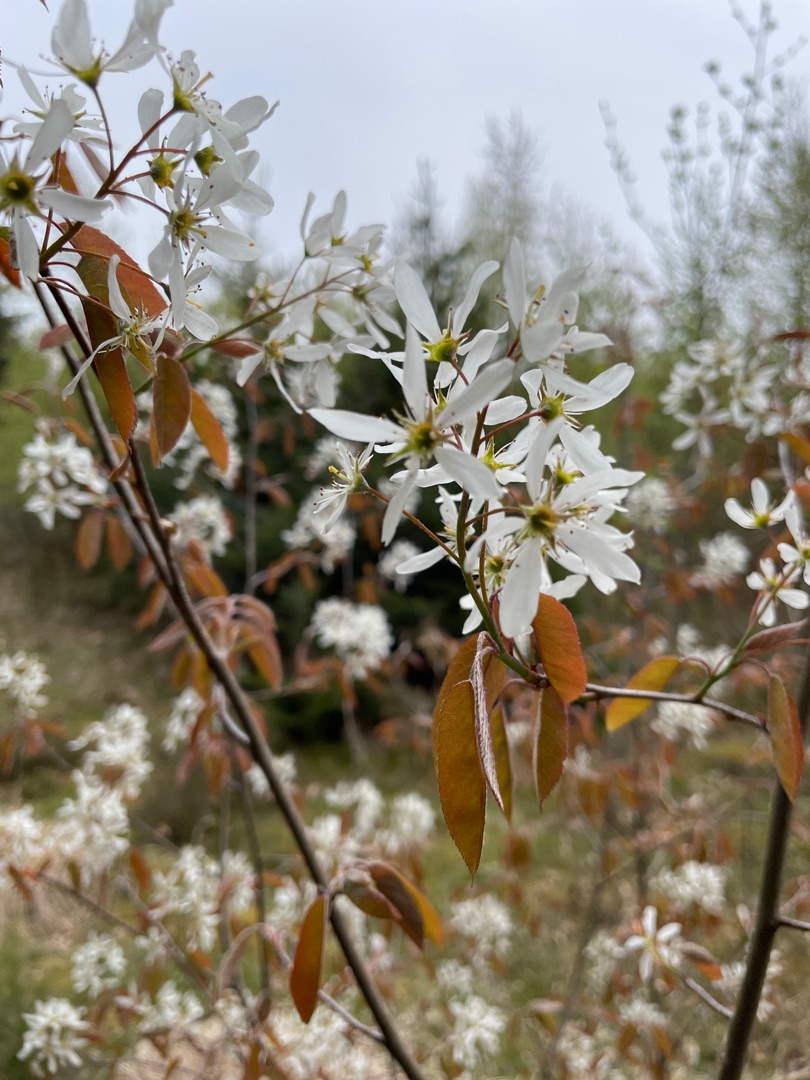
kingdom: Plantae
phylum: Tracheophyta
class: Magnoliopsida
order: Rosales
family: Rosaceae
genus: Amelanchier
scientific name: Amelanchier lamarckii
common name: Bærmispel
